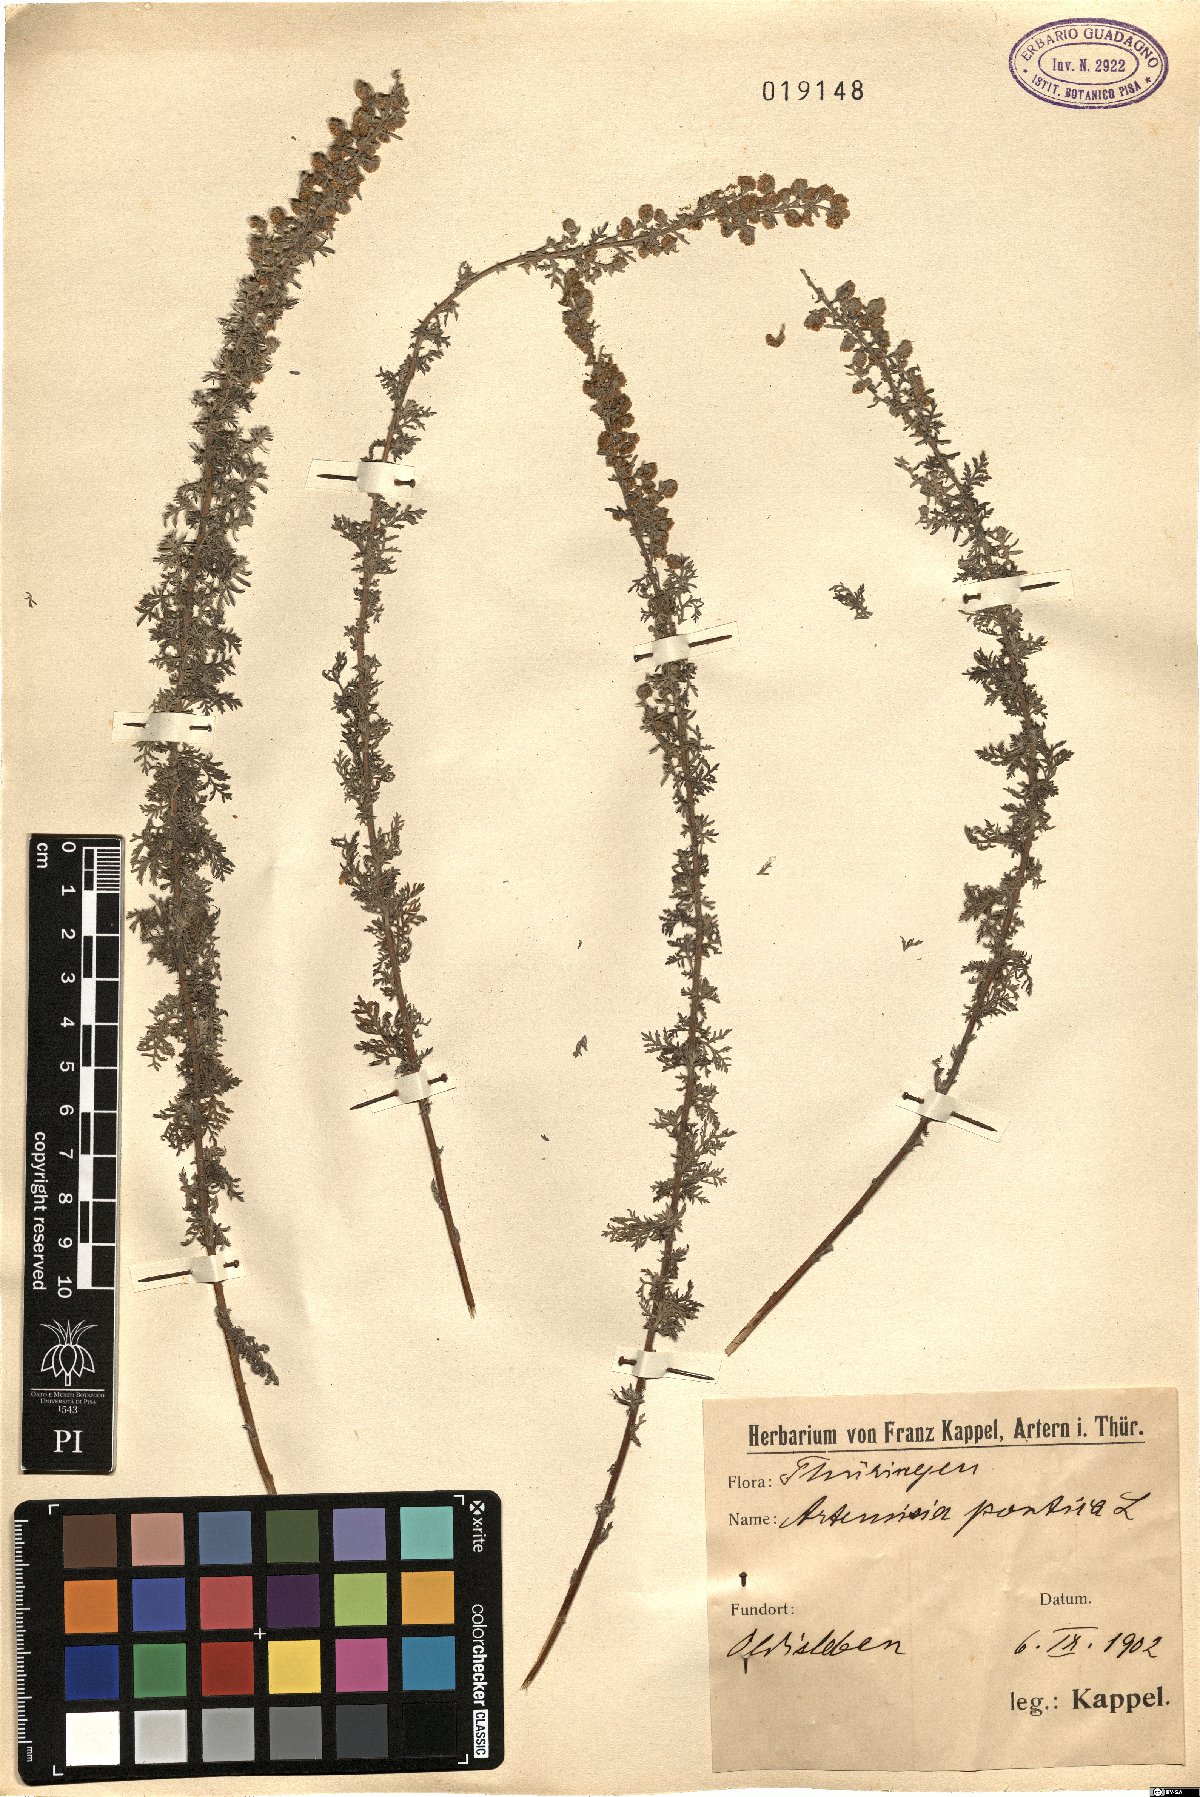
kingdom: Plantae
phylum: Tracheophyta
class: Magnoliopsida
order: Asterales
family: Asteraceae
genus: Artemisia
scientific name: Artemisia pontica
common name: Roman wormwood
